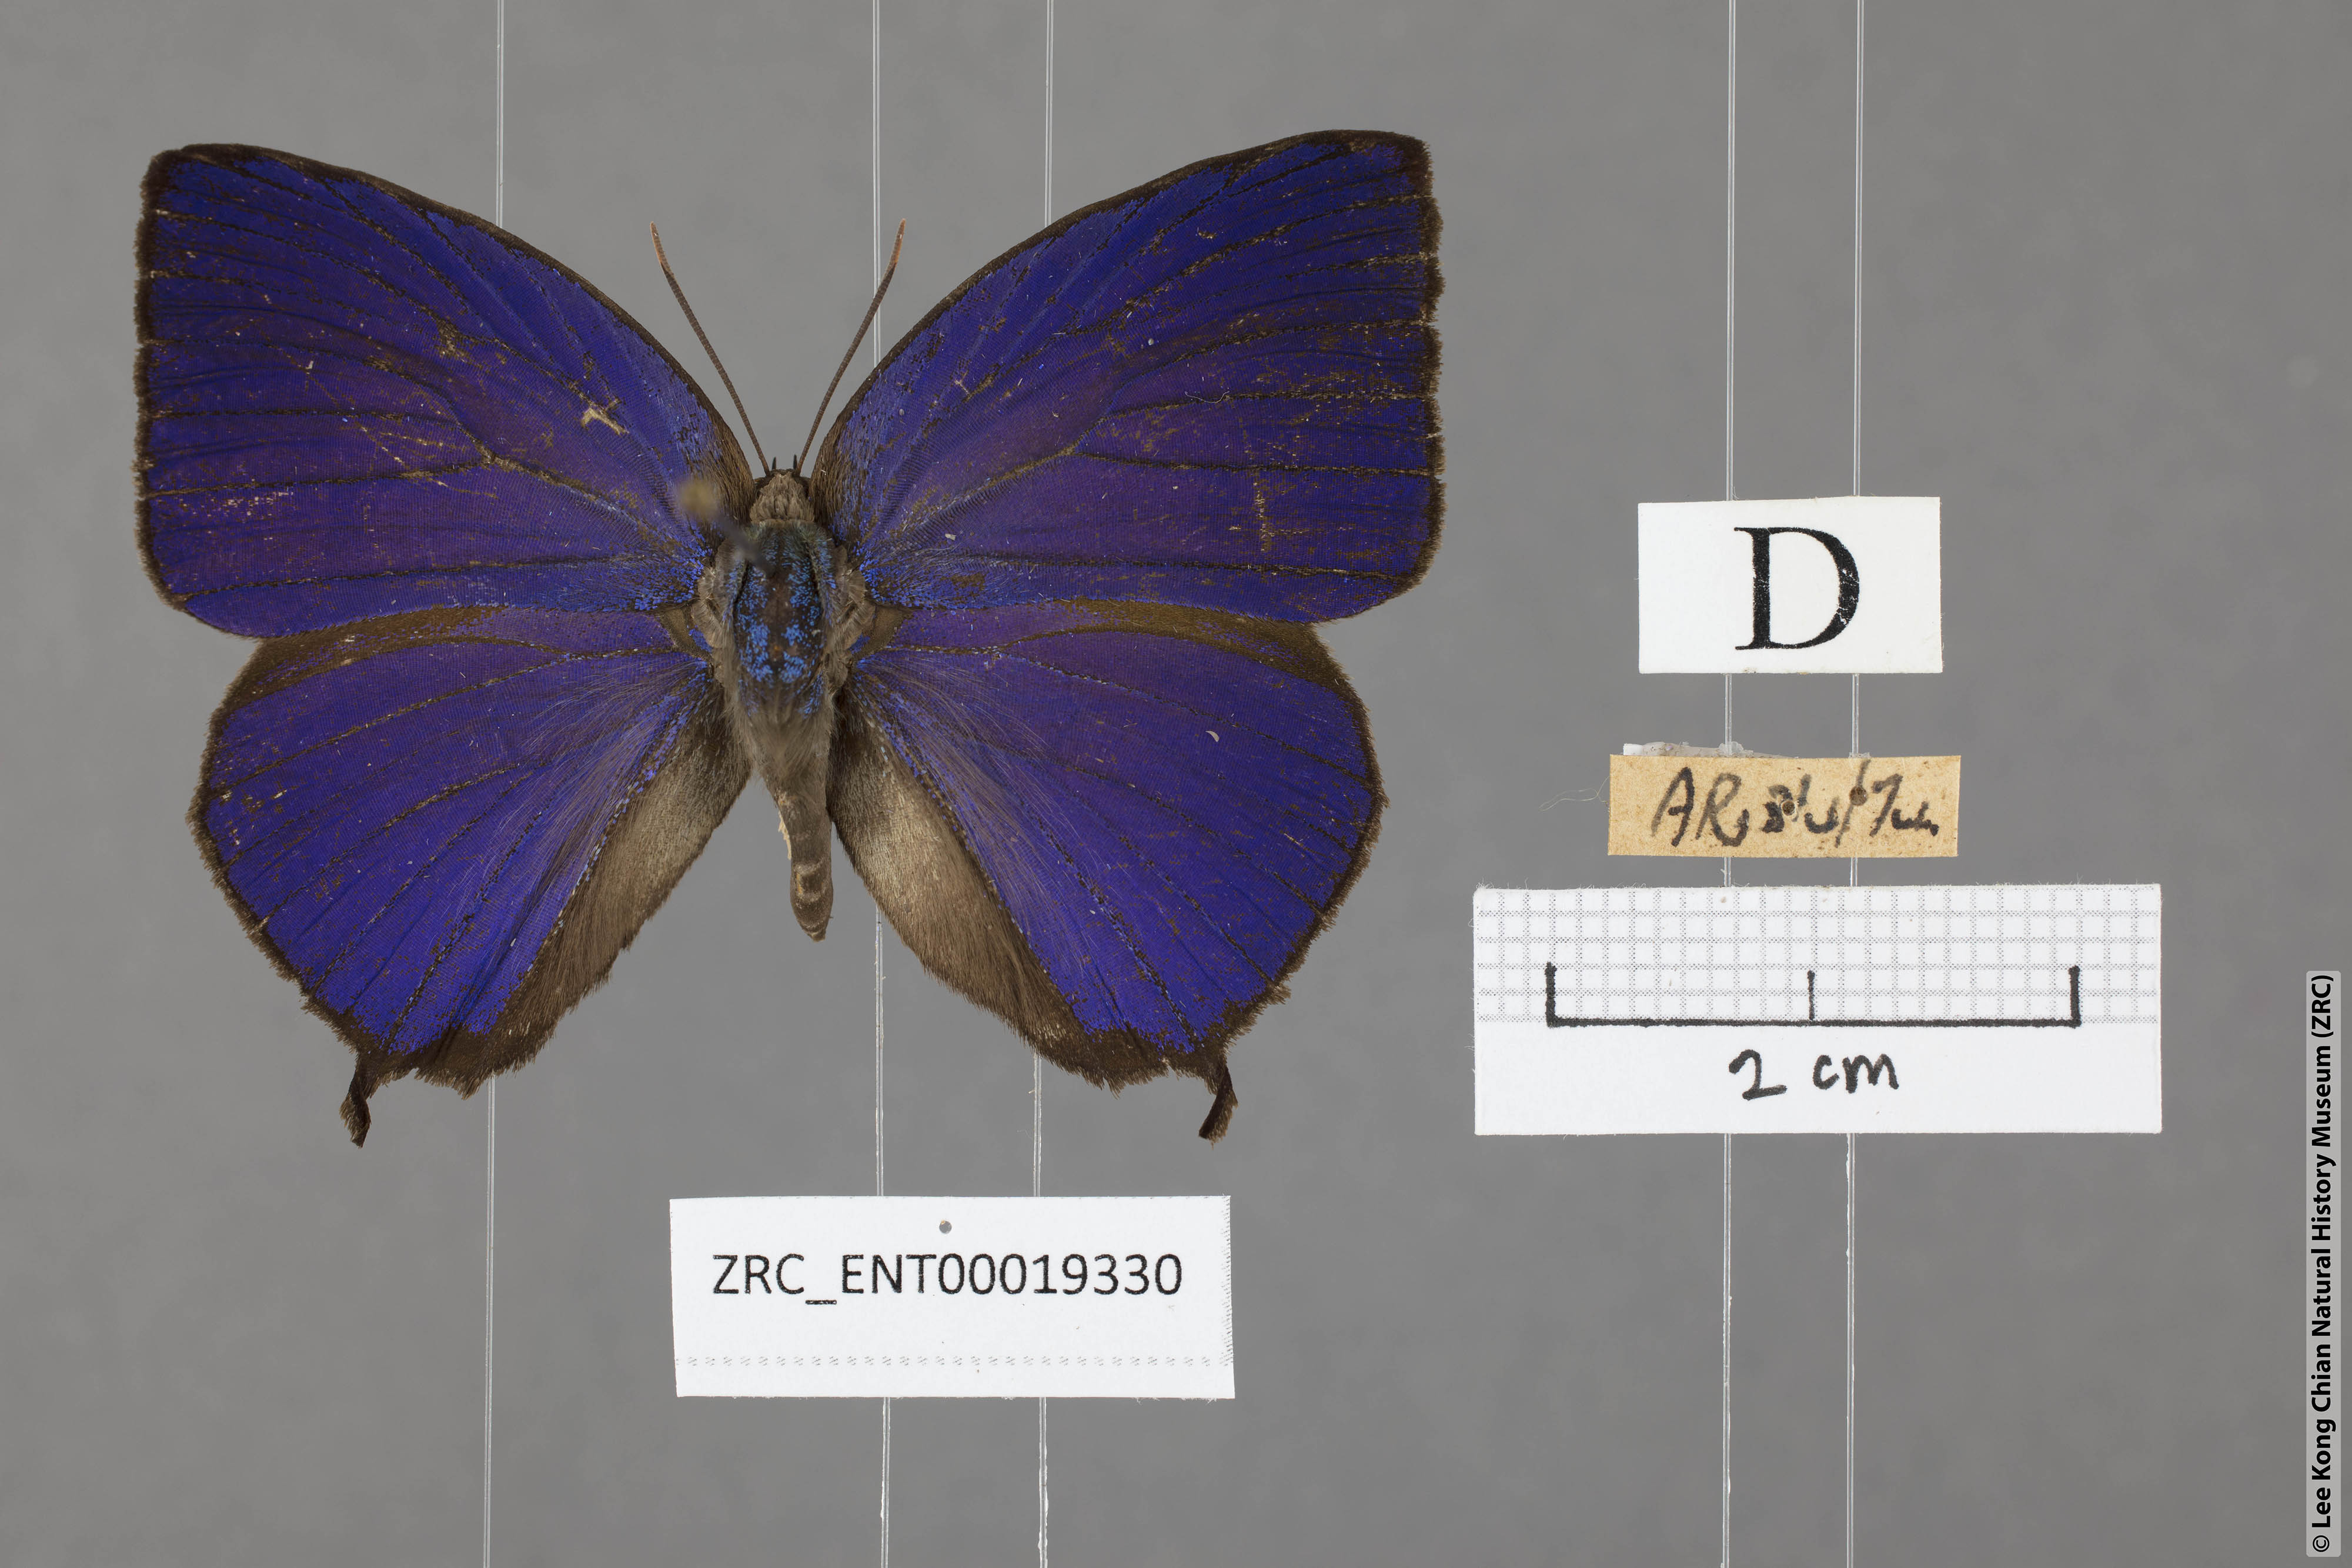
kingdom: Animalia
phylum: Arthropoda
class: Insecta
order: Lepidoptera
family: Lycaenidae
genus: Arhopala
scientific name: Arhopala centaurus
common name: Dull oak-blue
